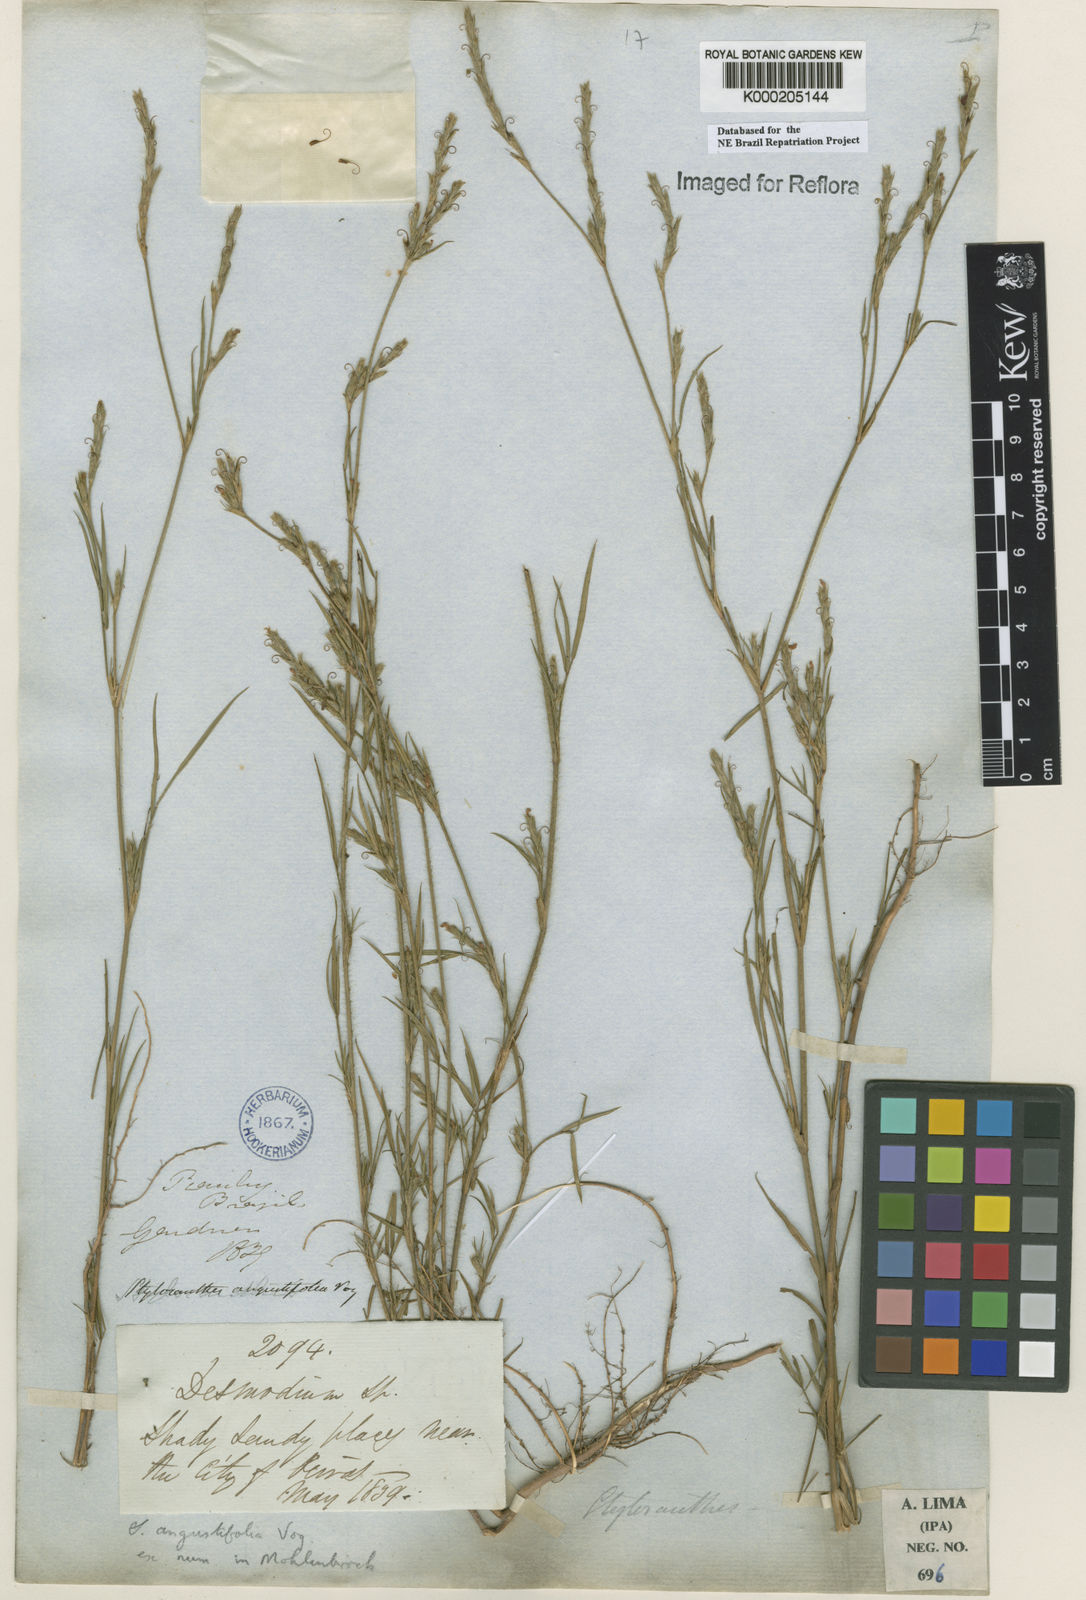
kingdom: Plantae
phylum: Tracheophyta
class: Magnoliopsida
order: Fabales
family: Fabaceae
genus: Stylosanthes
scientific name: Stylosanthes angustifolia
